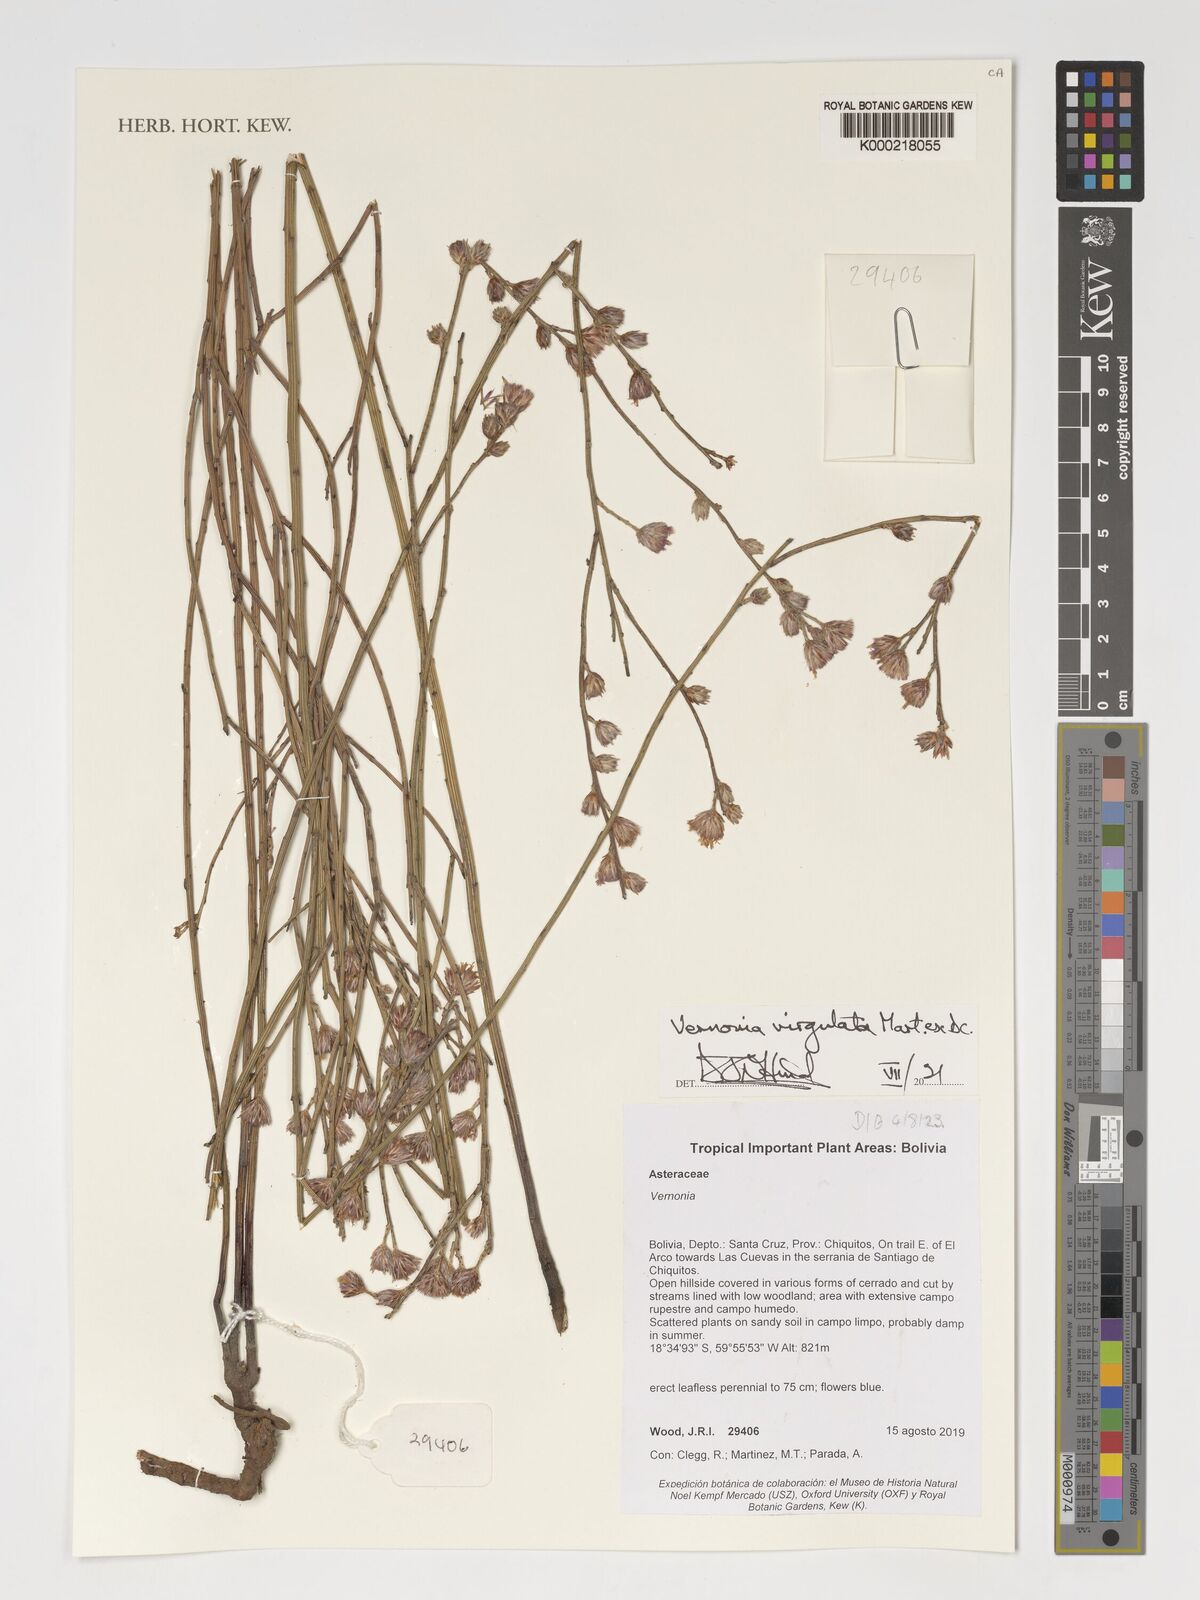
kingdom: Plantae
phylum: Tracheophyta
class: Magnoliopsida
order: Asterales
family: Asteraceae
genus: Lessingianthus
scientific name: Lessingianthus virgulatus
